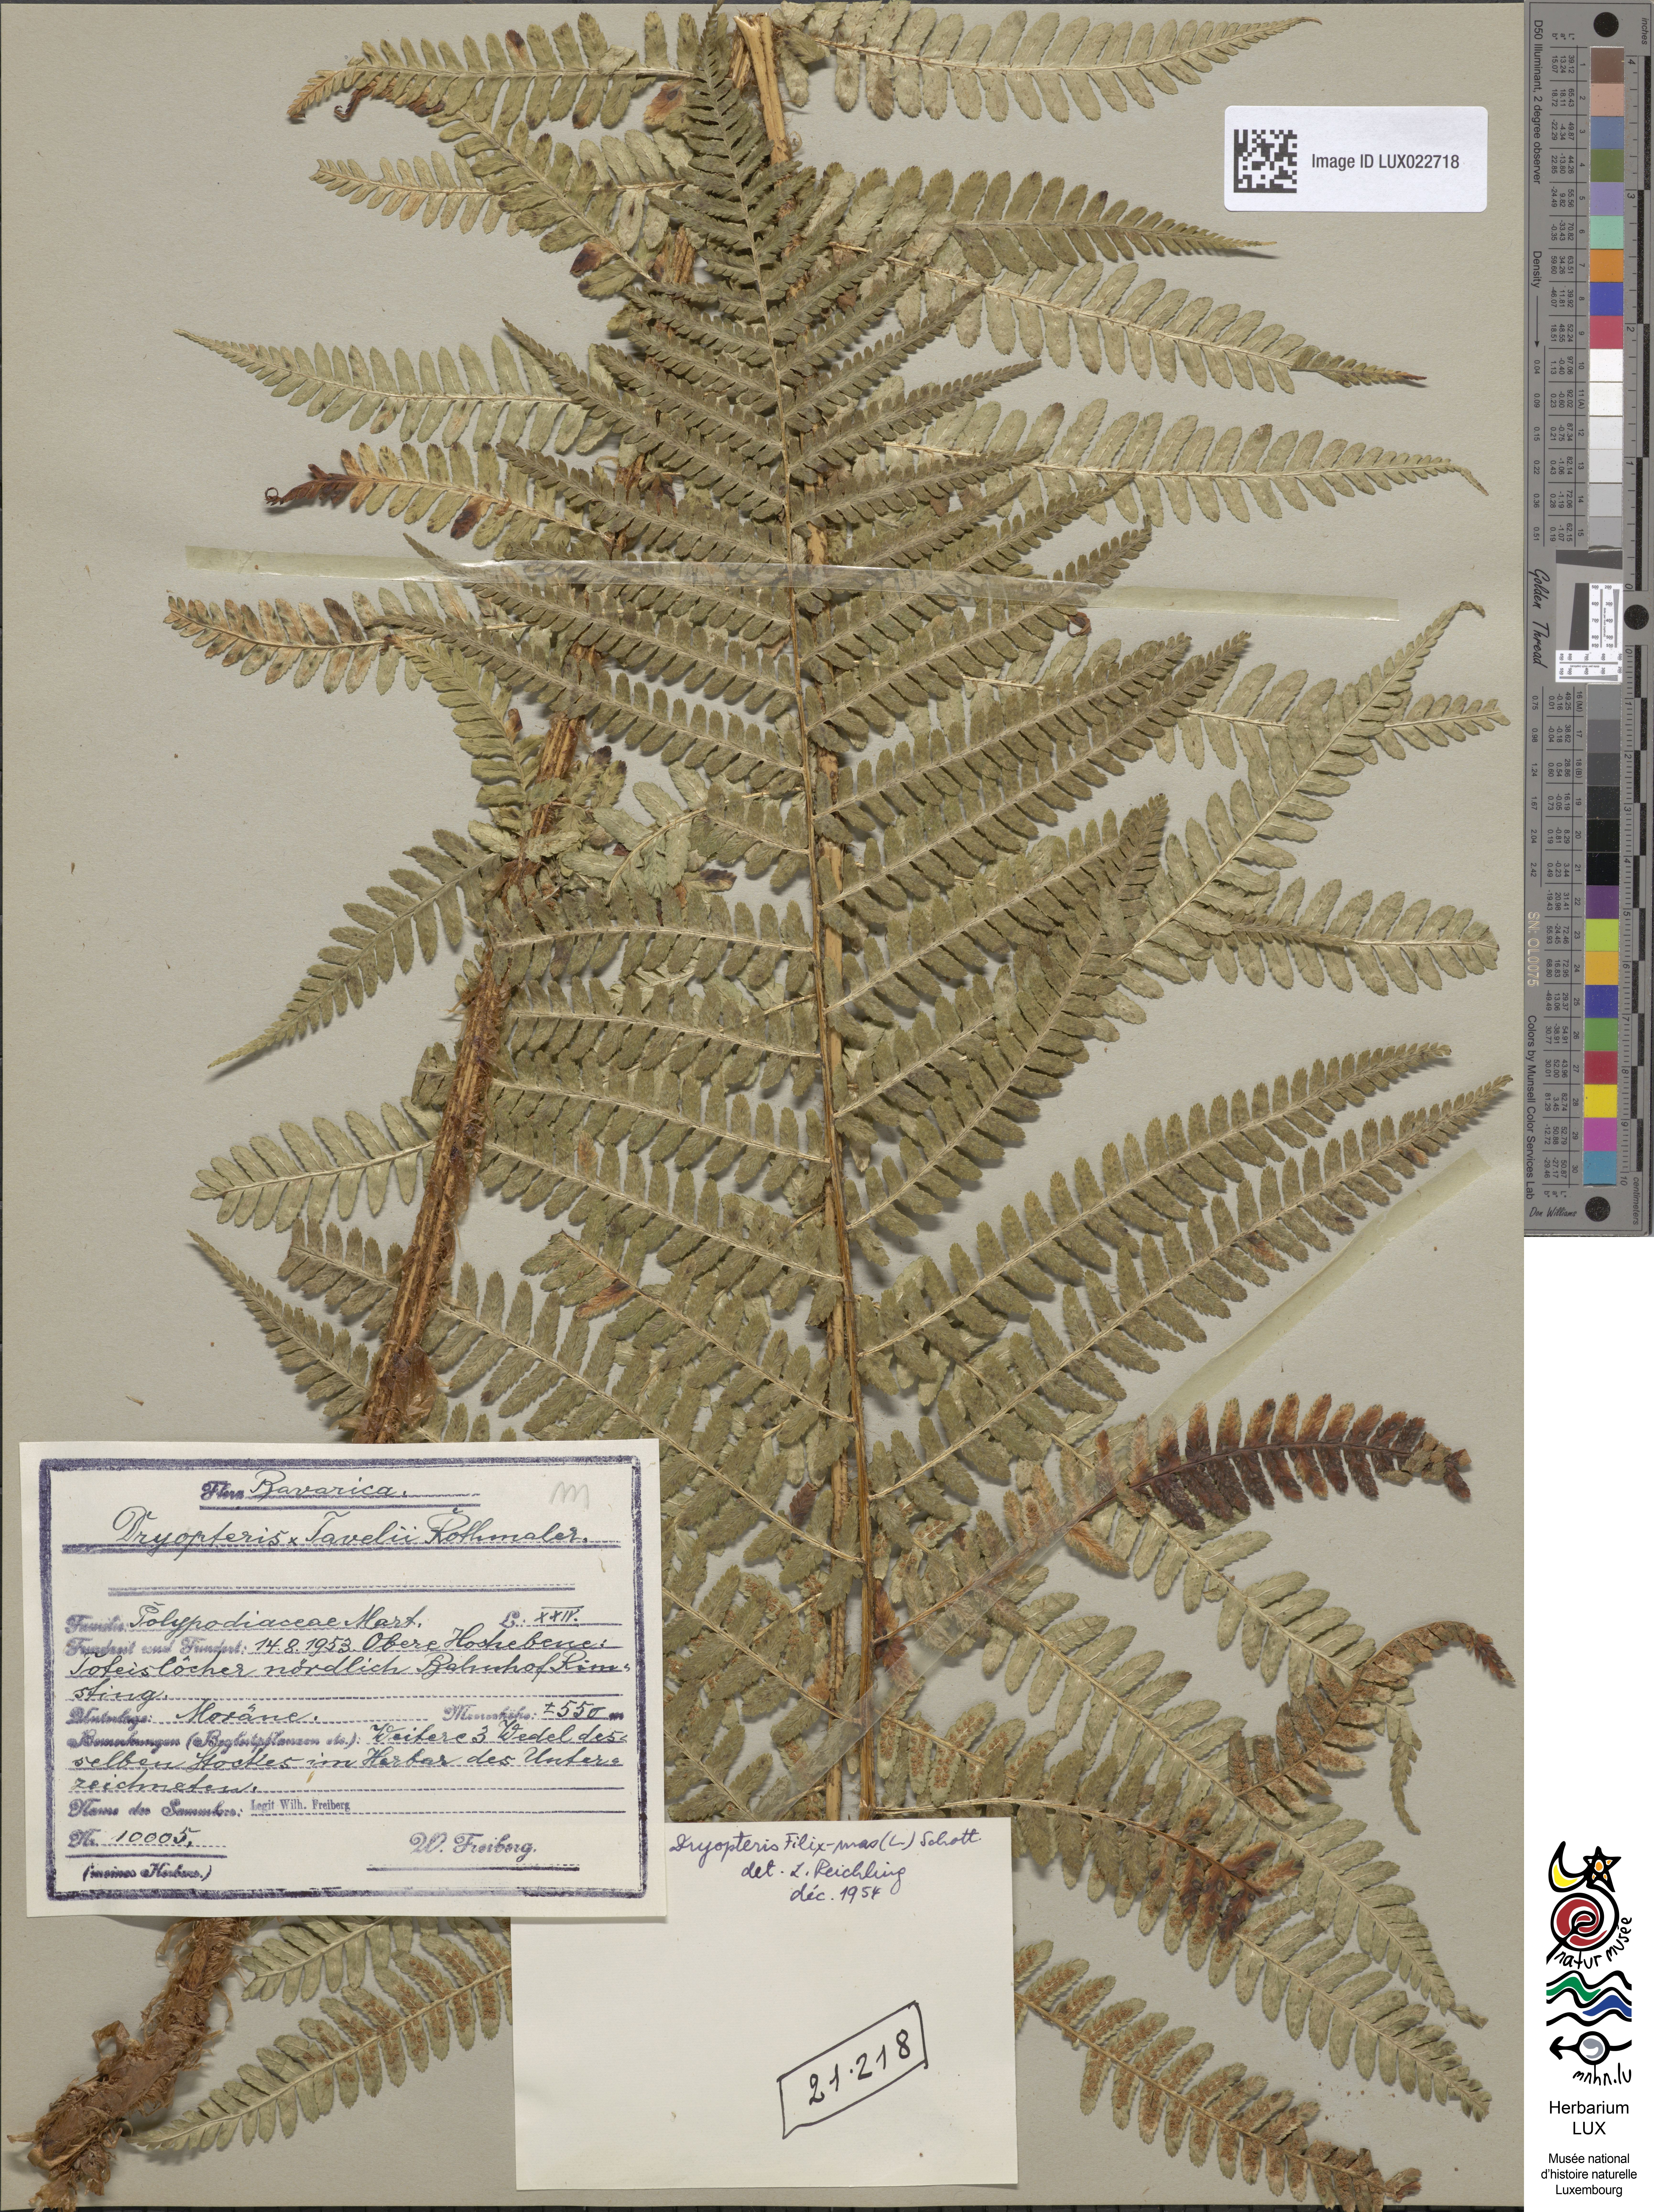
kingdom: Plantae
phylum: Tracheophyta
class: Polypodiopsida
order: Polypodiales
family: Dryopteridaceae
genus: Dryopteris
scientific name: Dryopteris filix-mas
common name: Male fern
